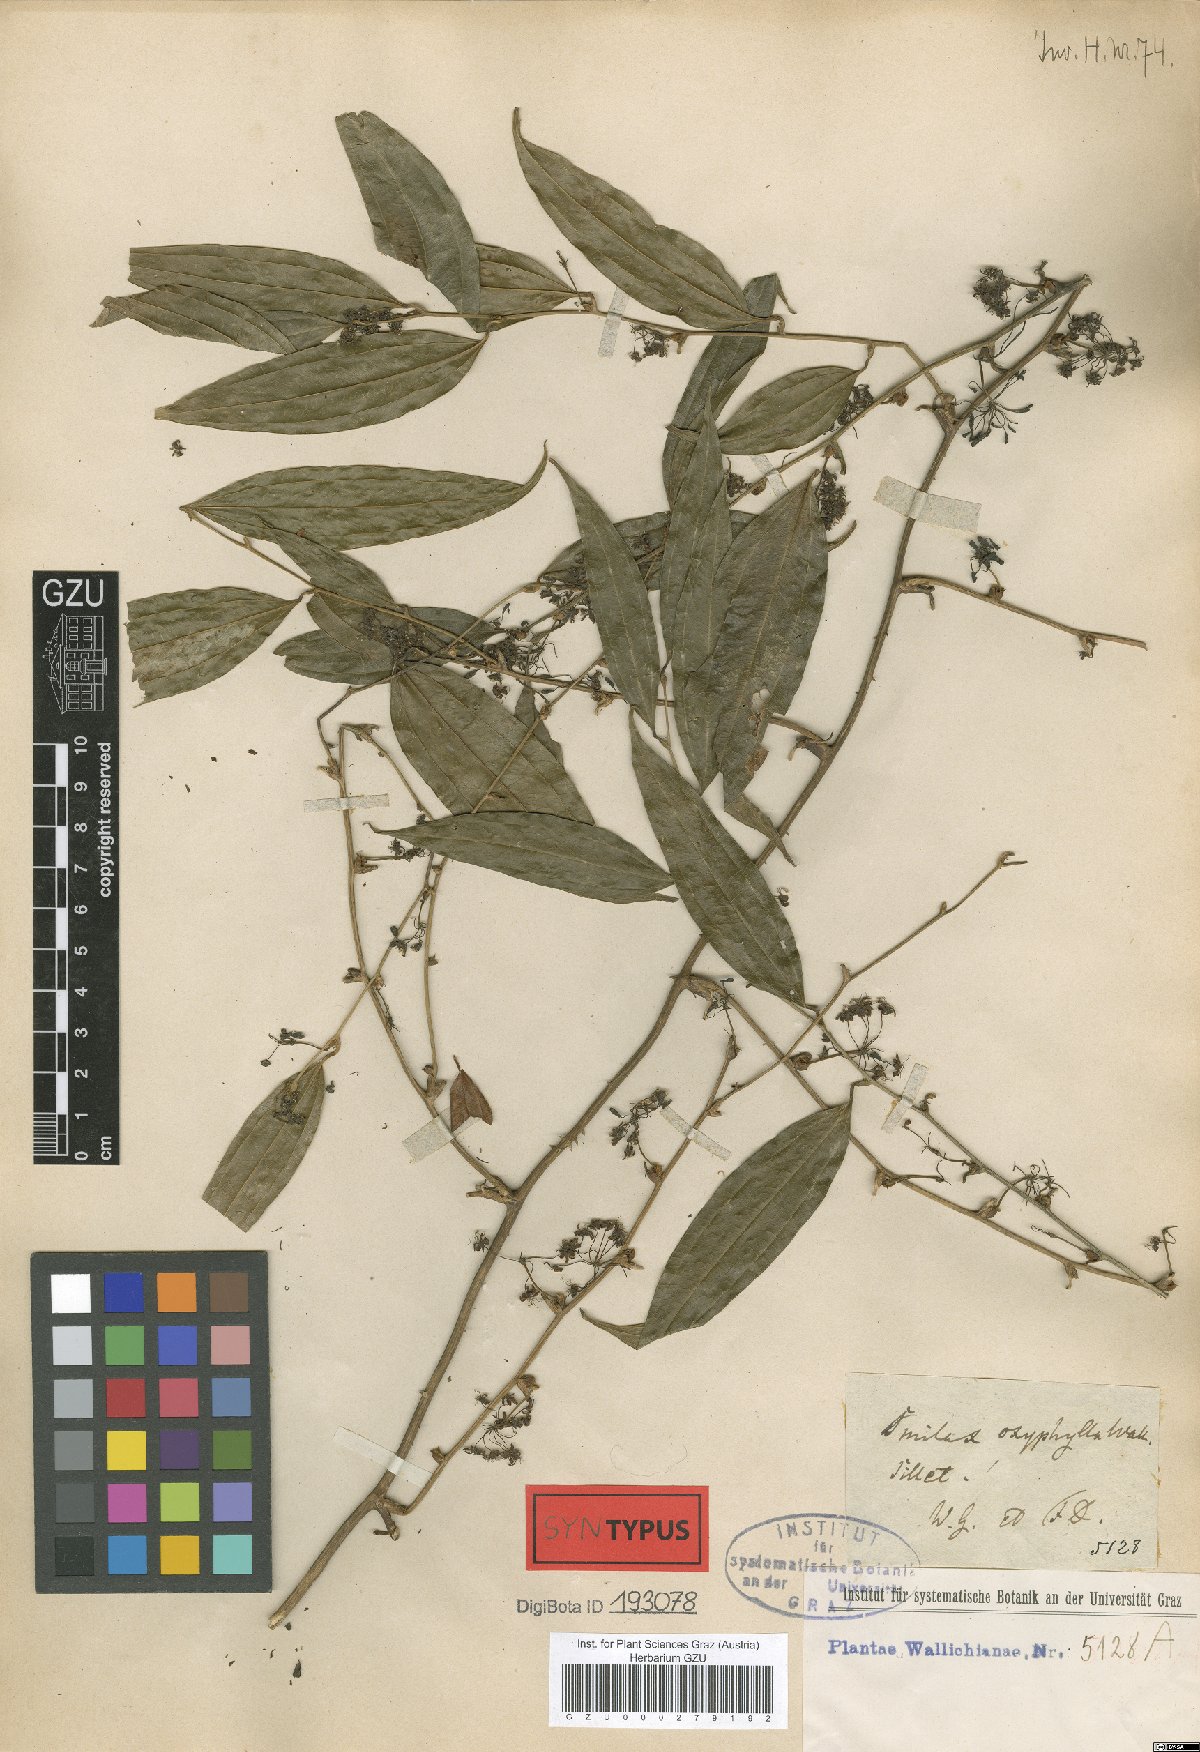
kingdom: Plantae
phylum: Tracheophyta
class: Liliopsida
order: Liliales
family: Smilacaceae
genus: Smilax
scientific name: Smilax roxburghiana
